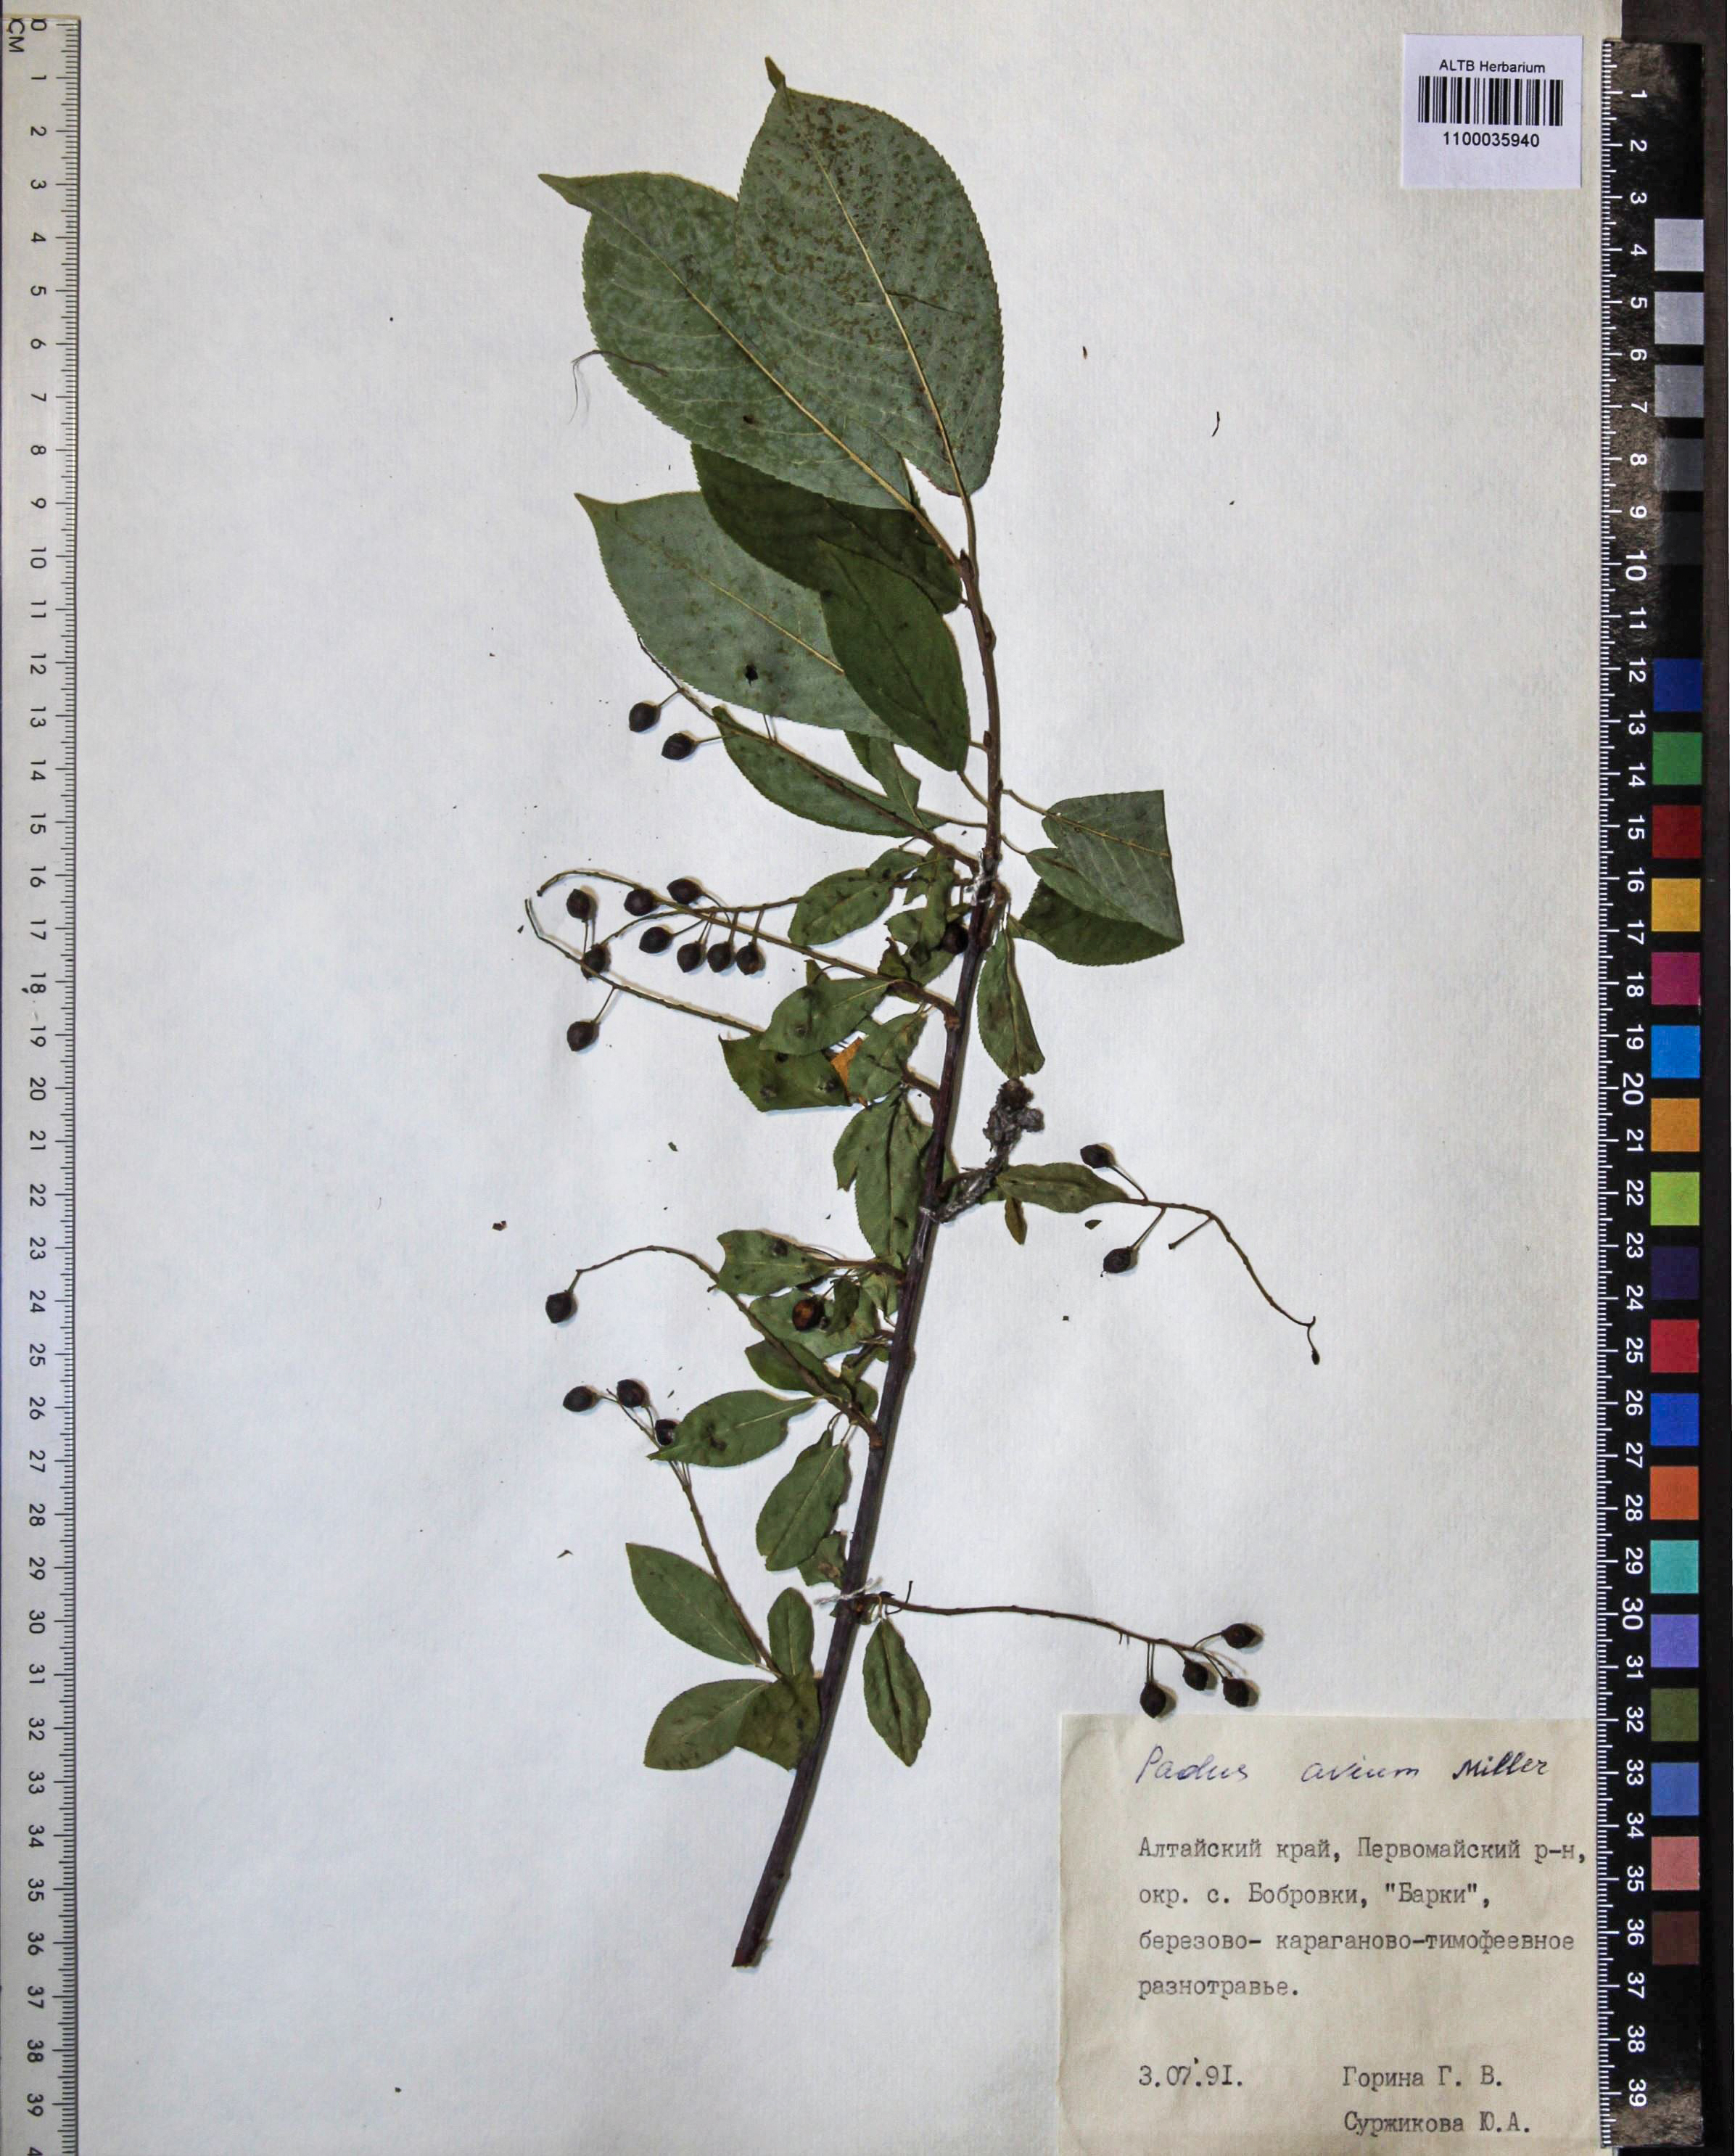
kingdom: Plantae
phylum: Tracheophyta
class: Magnoliopsida
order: Rosales
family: Rosaceae
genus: Prunus
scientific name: Prunus padus
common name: Bird cherry
